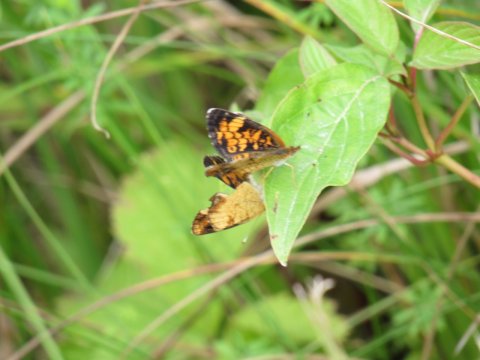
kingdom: Animalia
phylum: Arthropoda
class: Insecta
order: Lepidoptera
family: Nymphalidae
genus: Phyciodes
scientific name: Phyciodes
